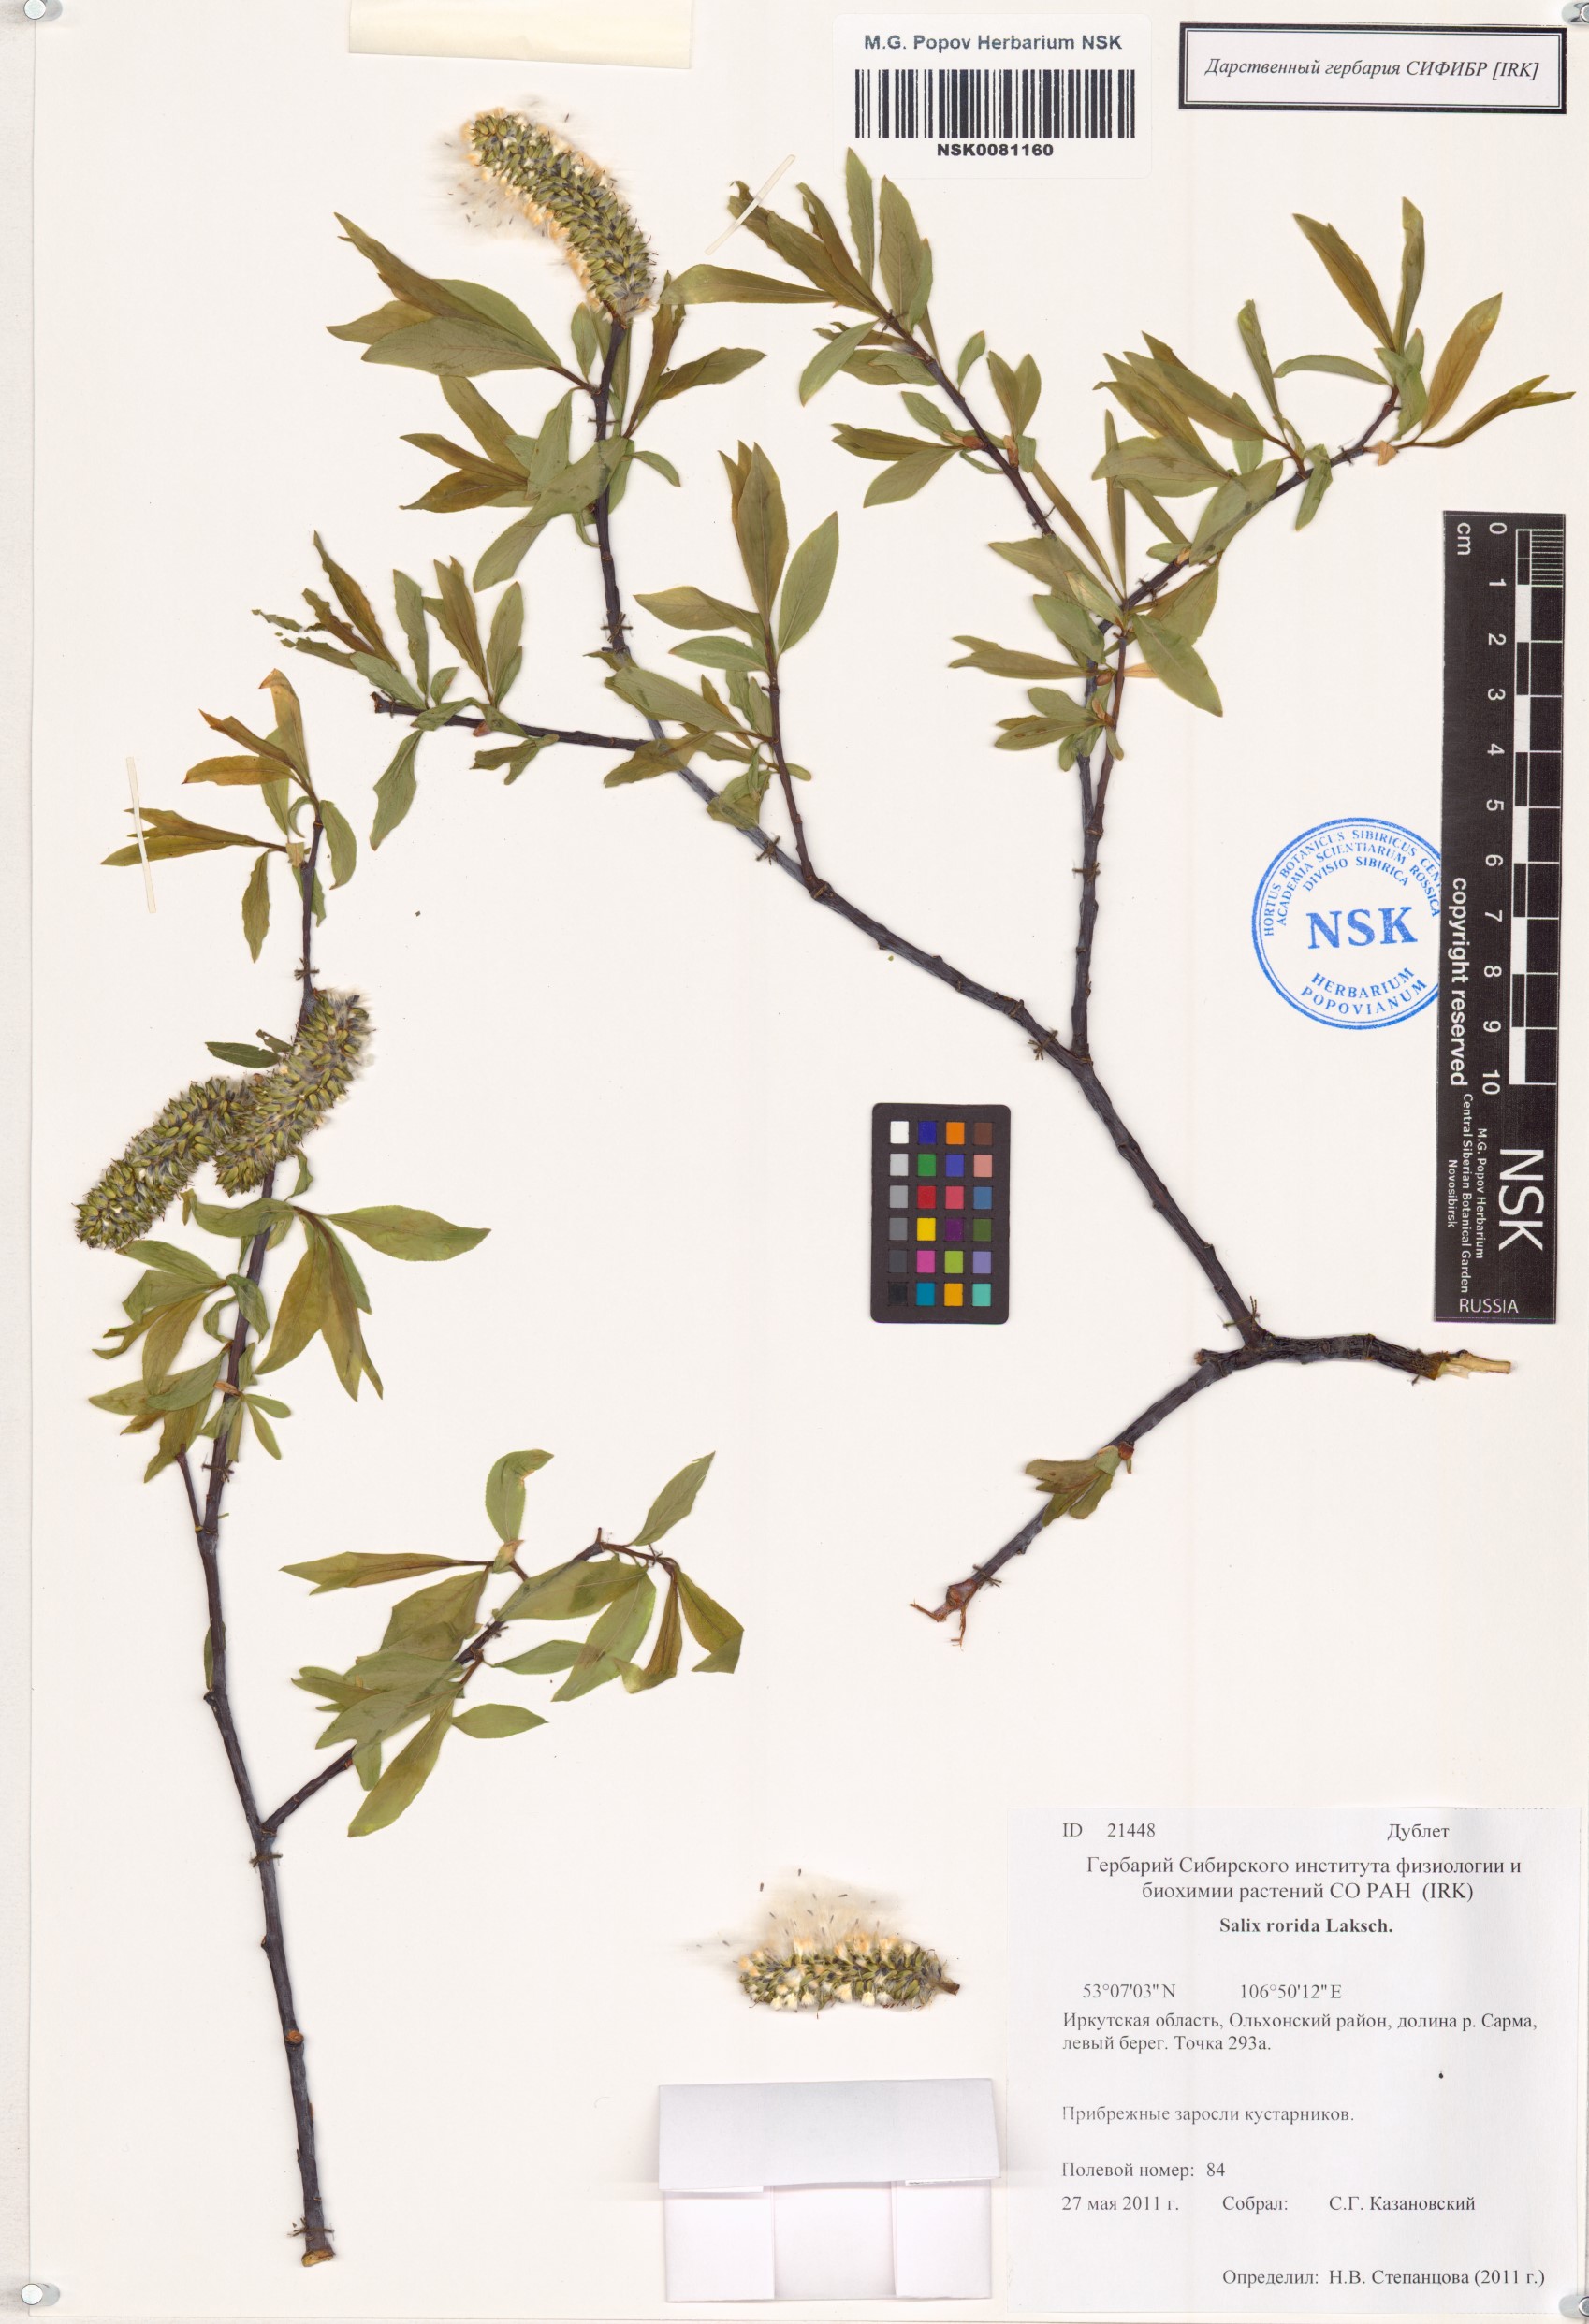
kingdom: Plantae
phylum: Tracheophyta
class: Magnoliopsida
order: Malpighiales
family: Salicaceae
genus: Salix
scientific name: Salix rorida
